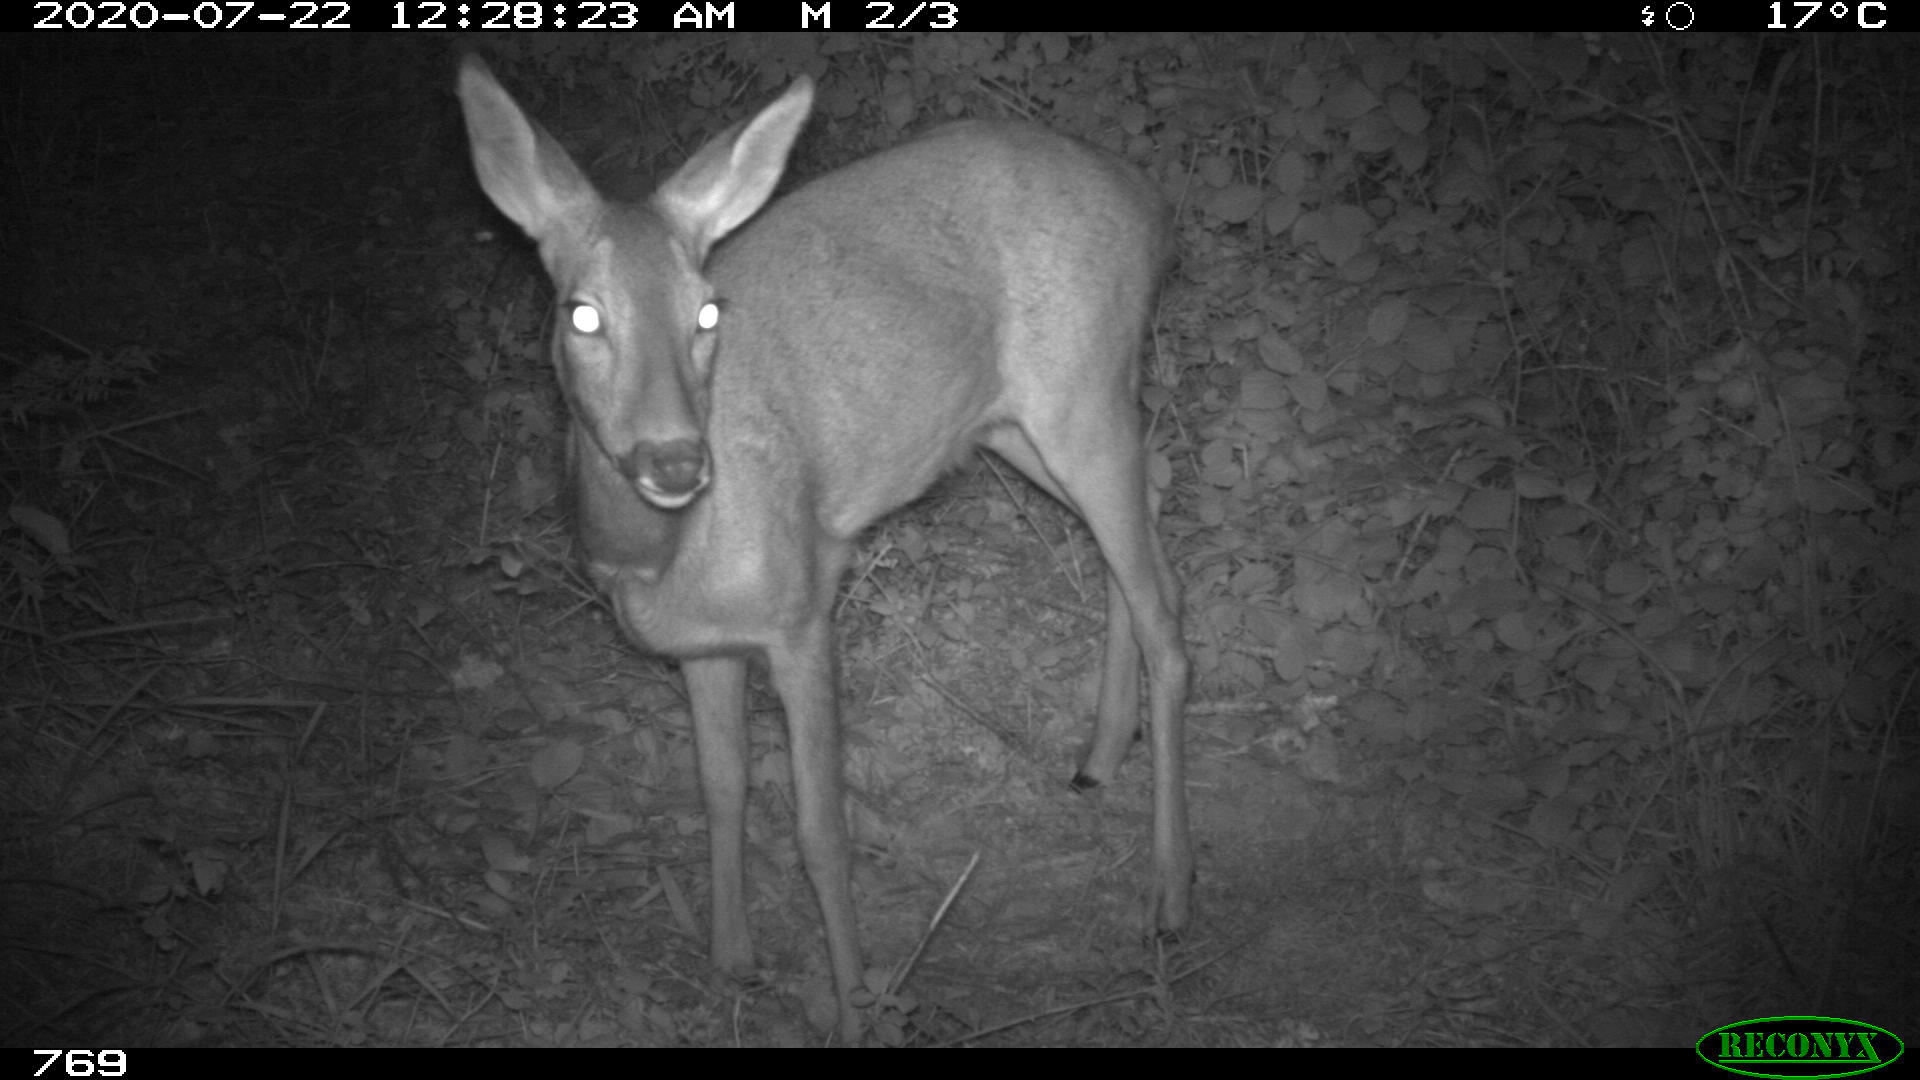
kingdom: Animalia
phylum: Chordata
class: Mammalia
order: Artiodactyla
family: Cervidae
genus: Capreolus
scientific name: Capreolus capreolus
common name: Western roe deer
